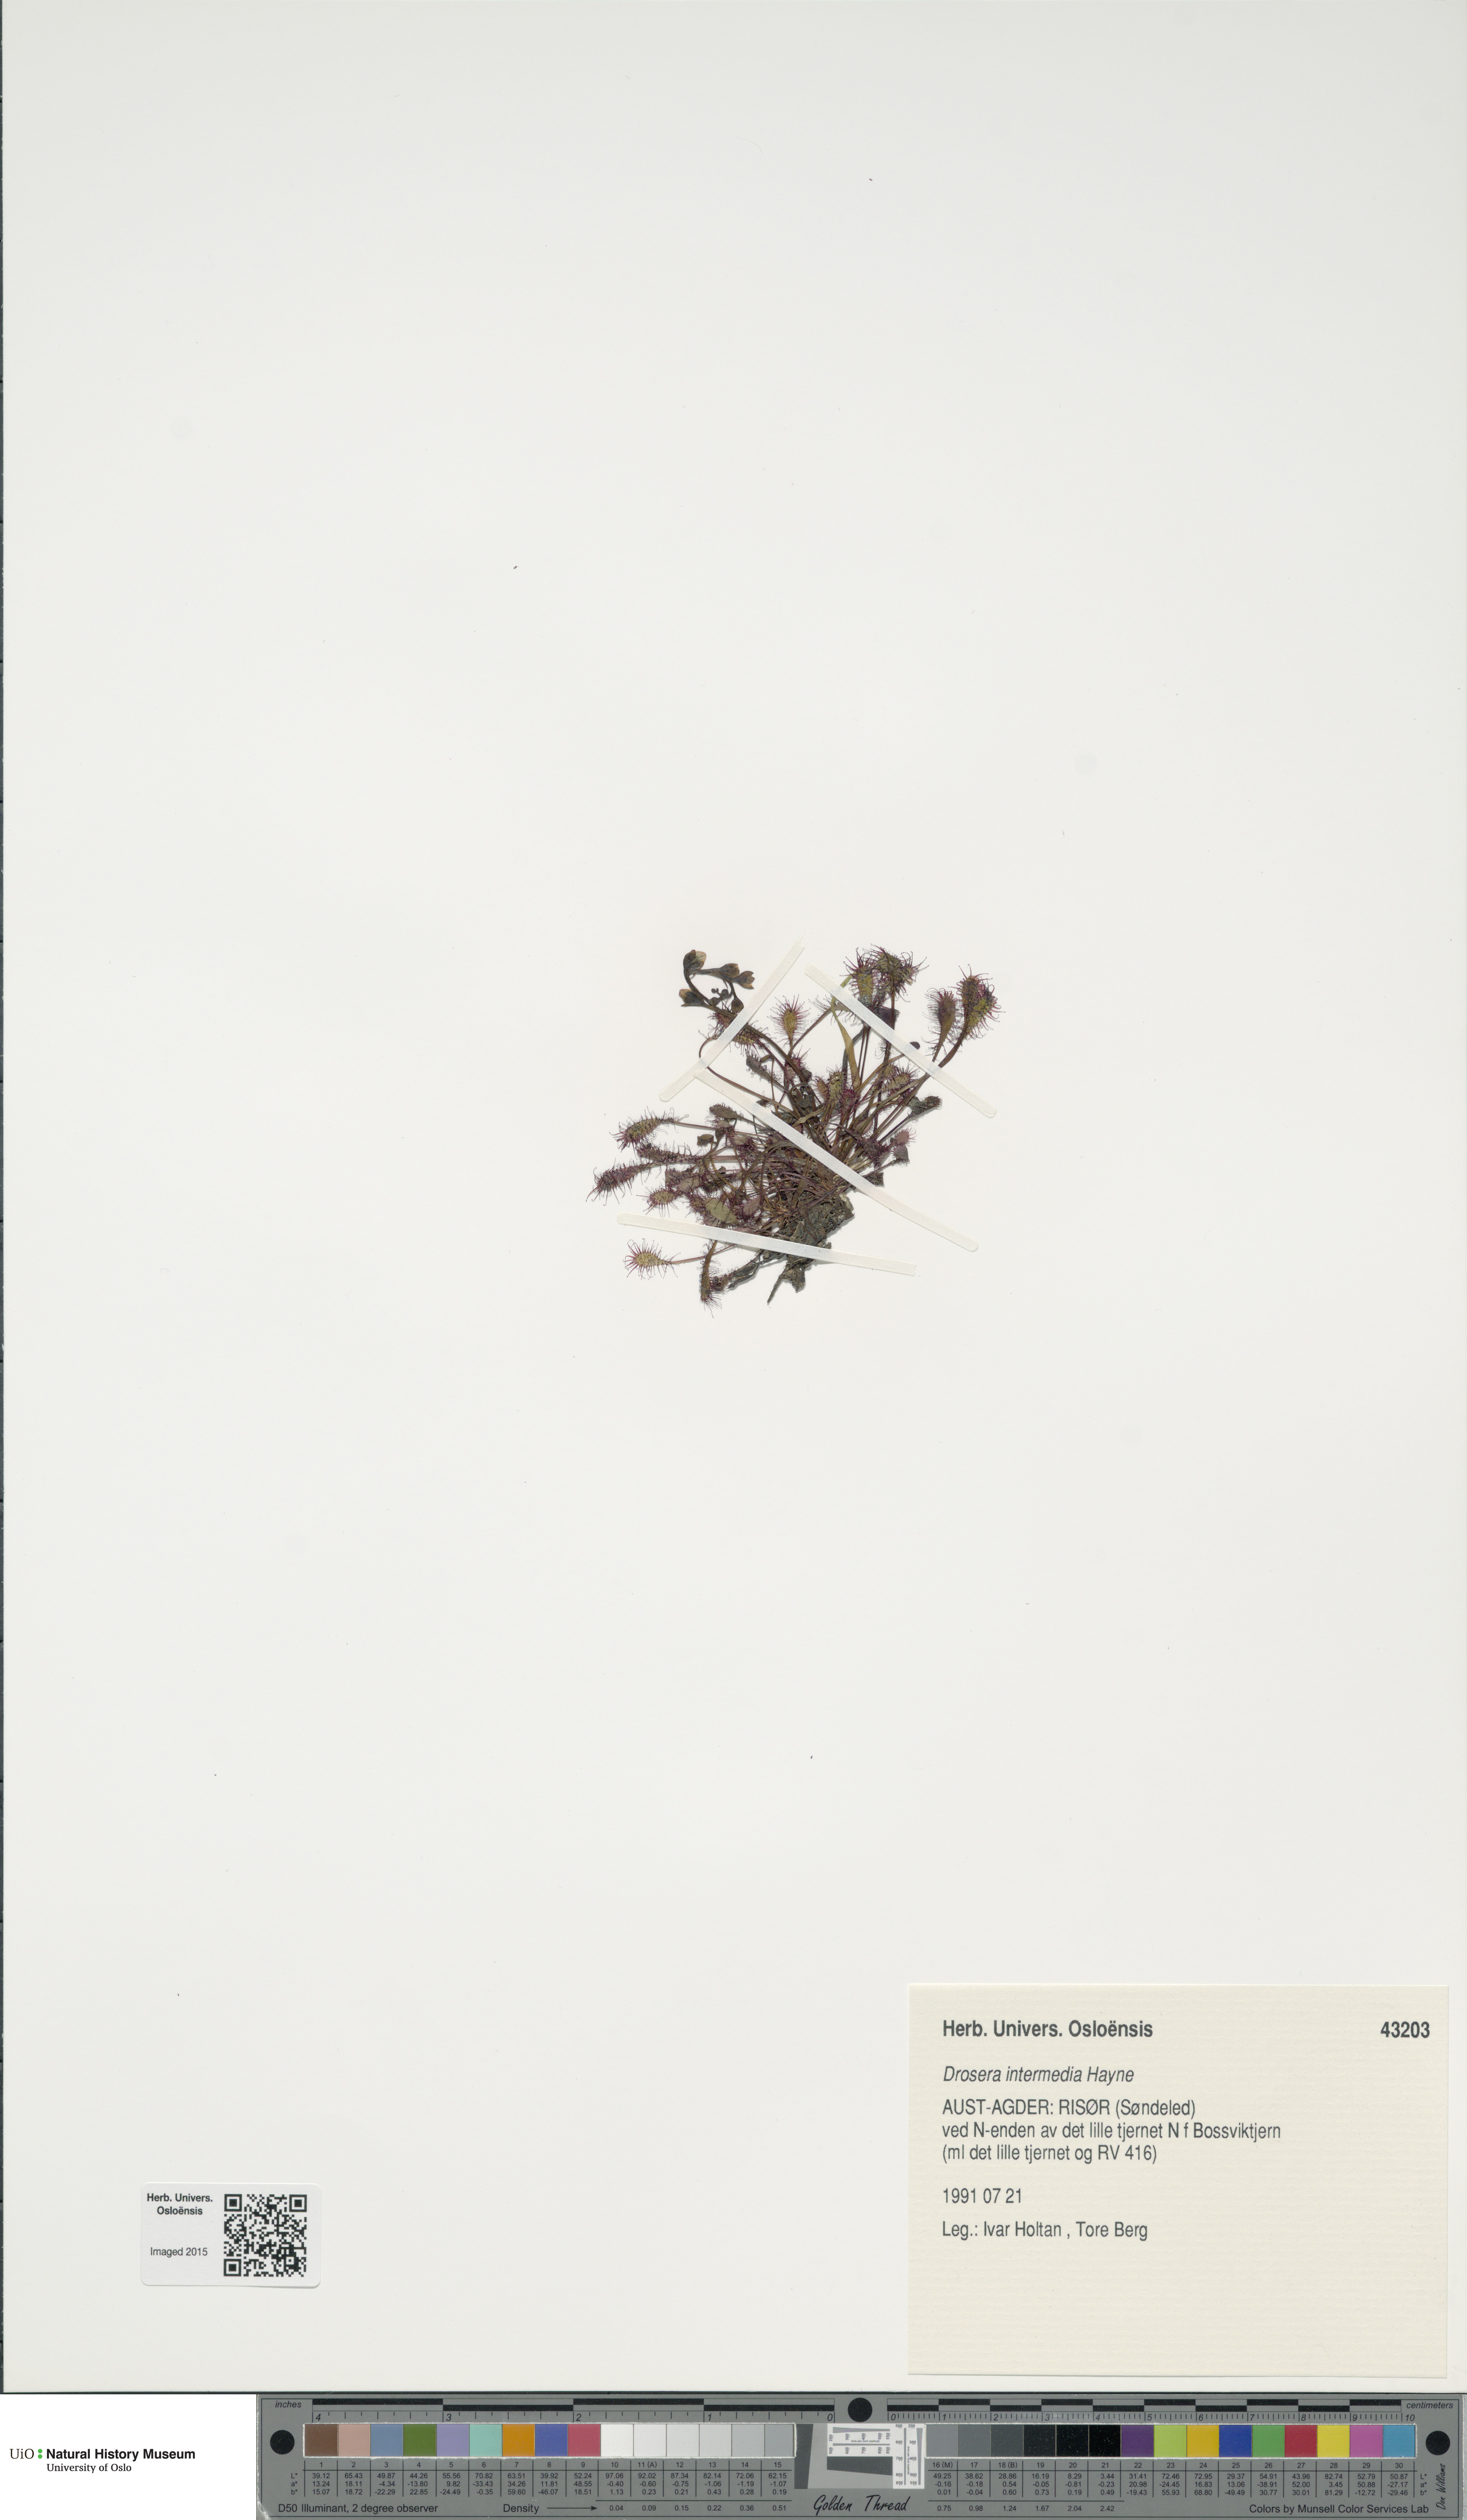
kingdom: Plantae
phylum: Tracheophyta
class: Magnoliopsida
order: Caryophyllales
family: Droseraceae
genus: Drosera
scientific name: Drosera intermedia
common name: Oblong-leaved sundew
